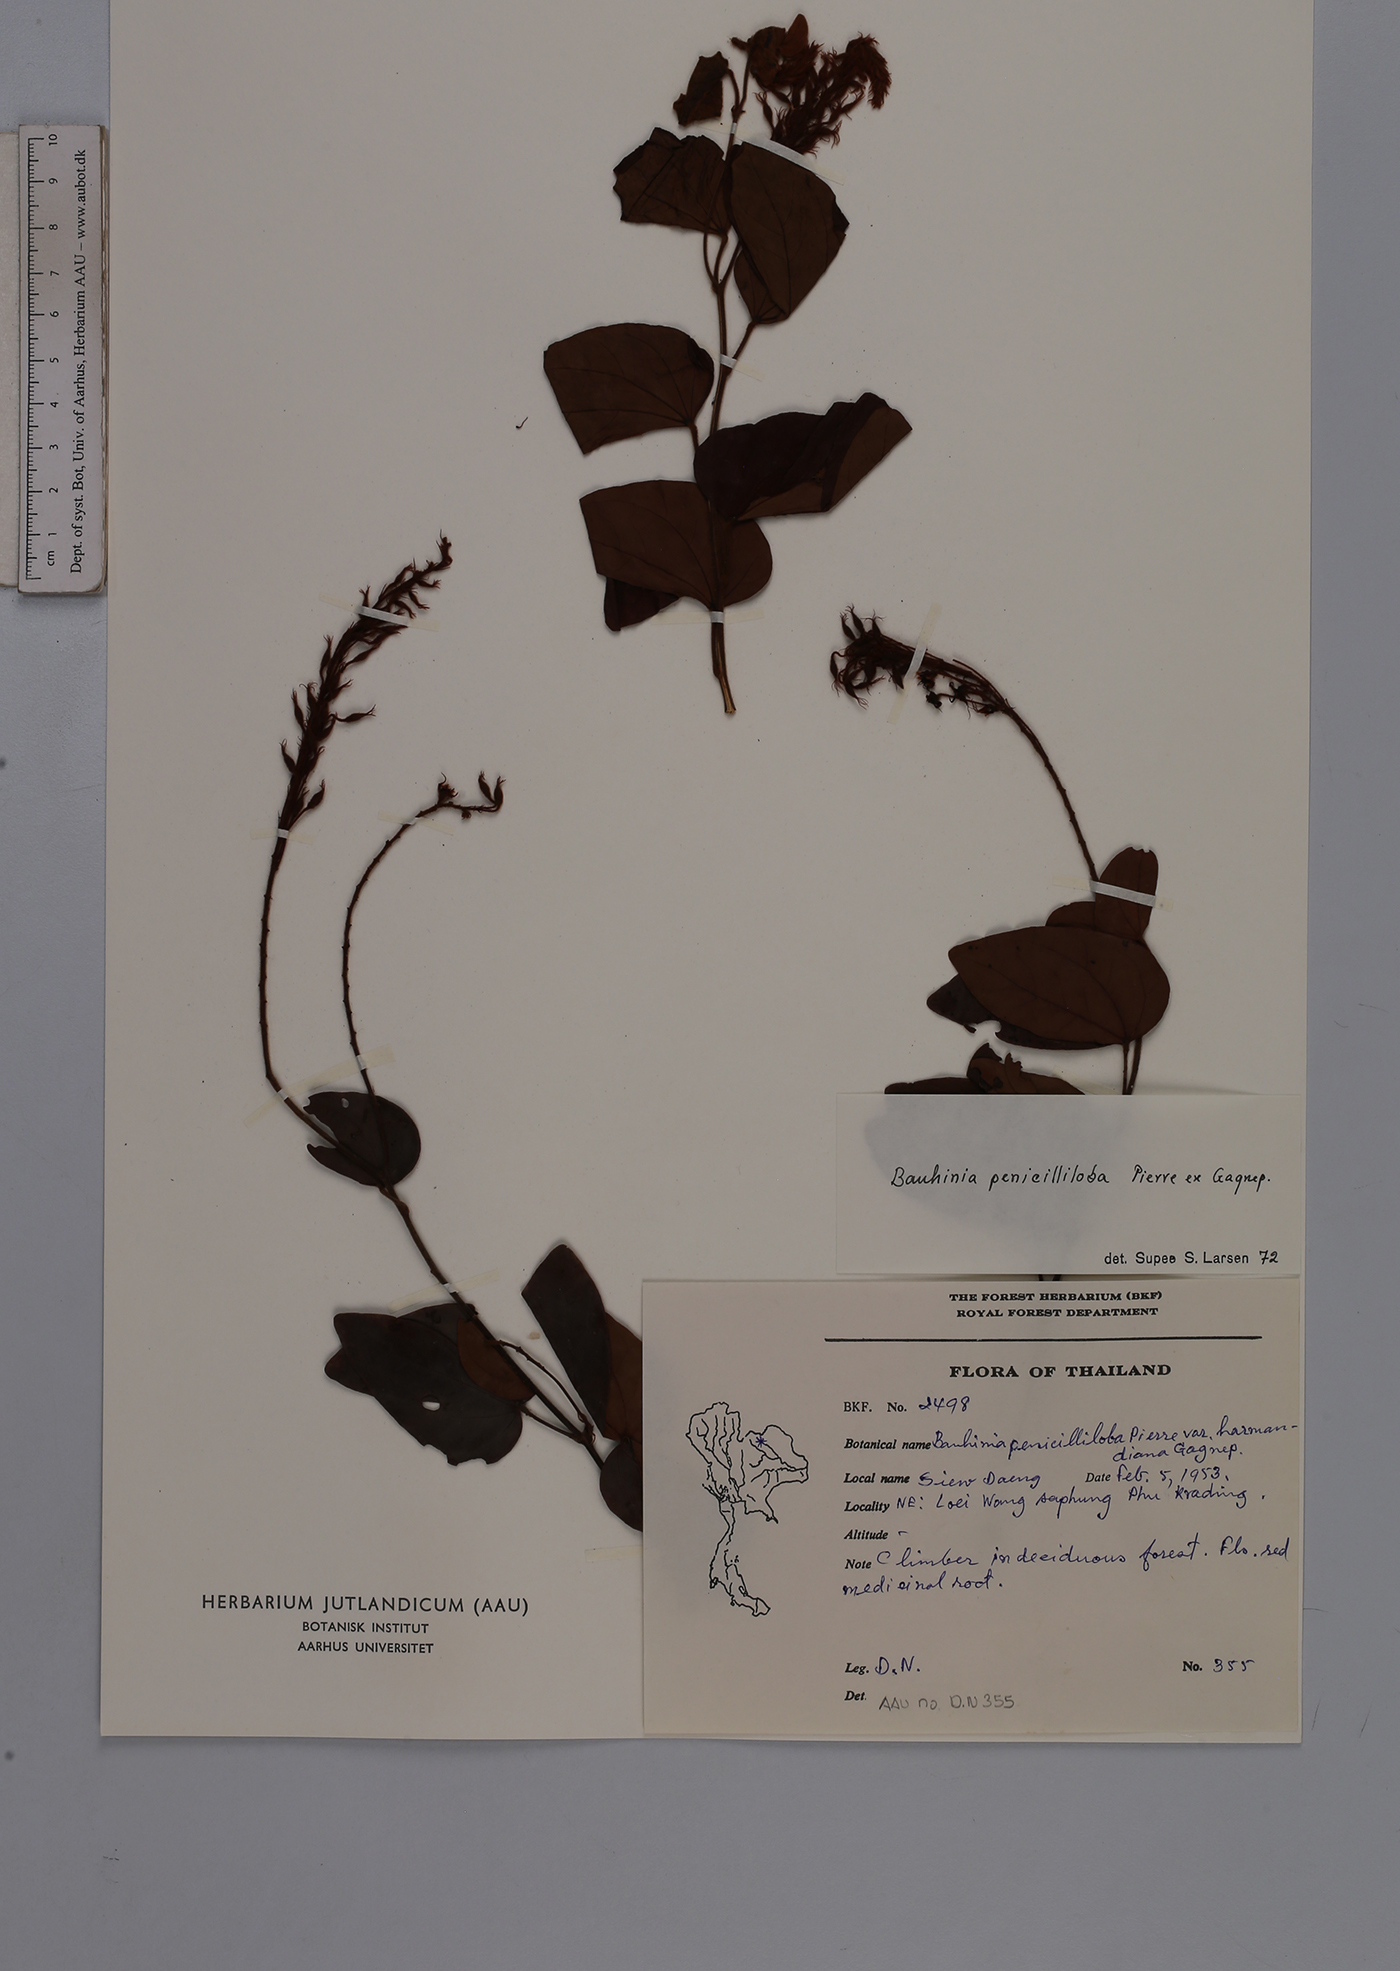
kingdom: Plantae
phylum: Tracheophyta
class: Magnoliopsida
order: Fabales
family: Fabaceae
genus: Phanera
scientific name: Phanera penicilliloba
